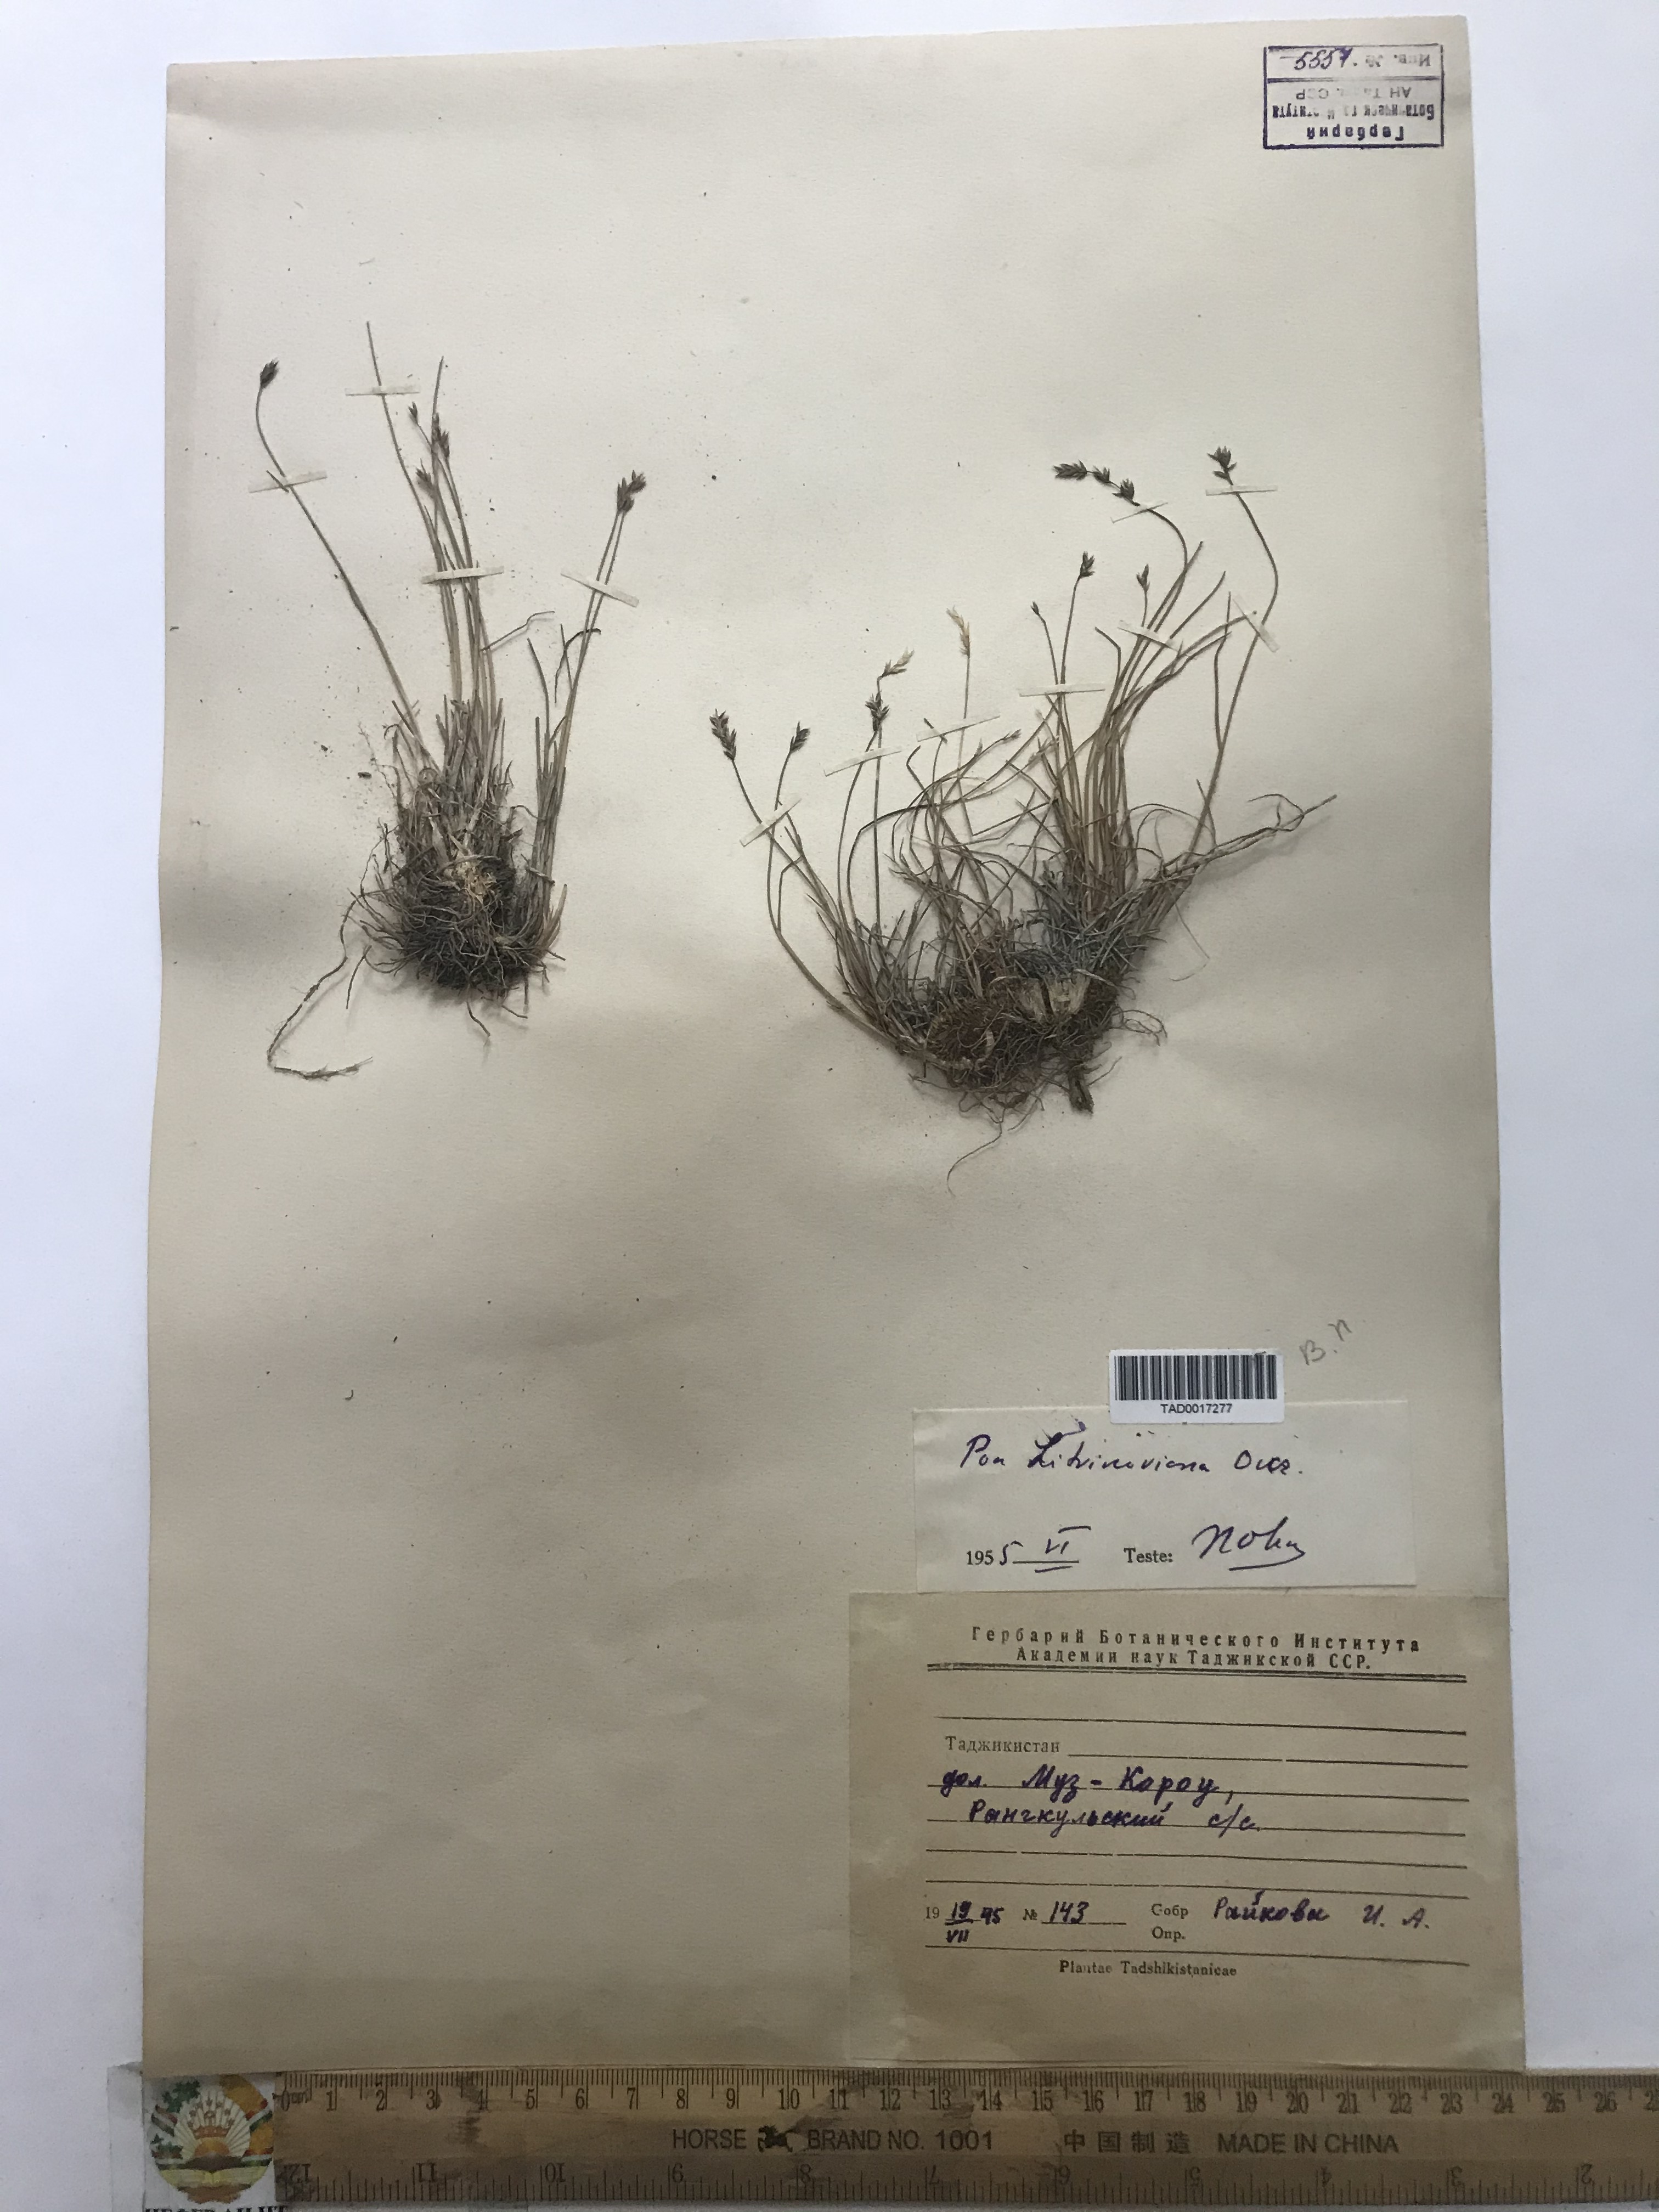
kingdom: Plantae
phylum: Tracheophyta
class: Liliopsida
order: Poales
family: Poaceae
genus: Poa
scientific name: Poa glauca
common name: Glaucous bluegrass
